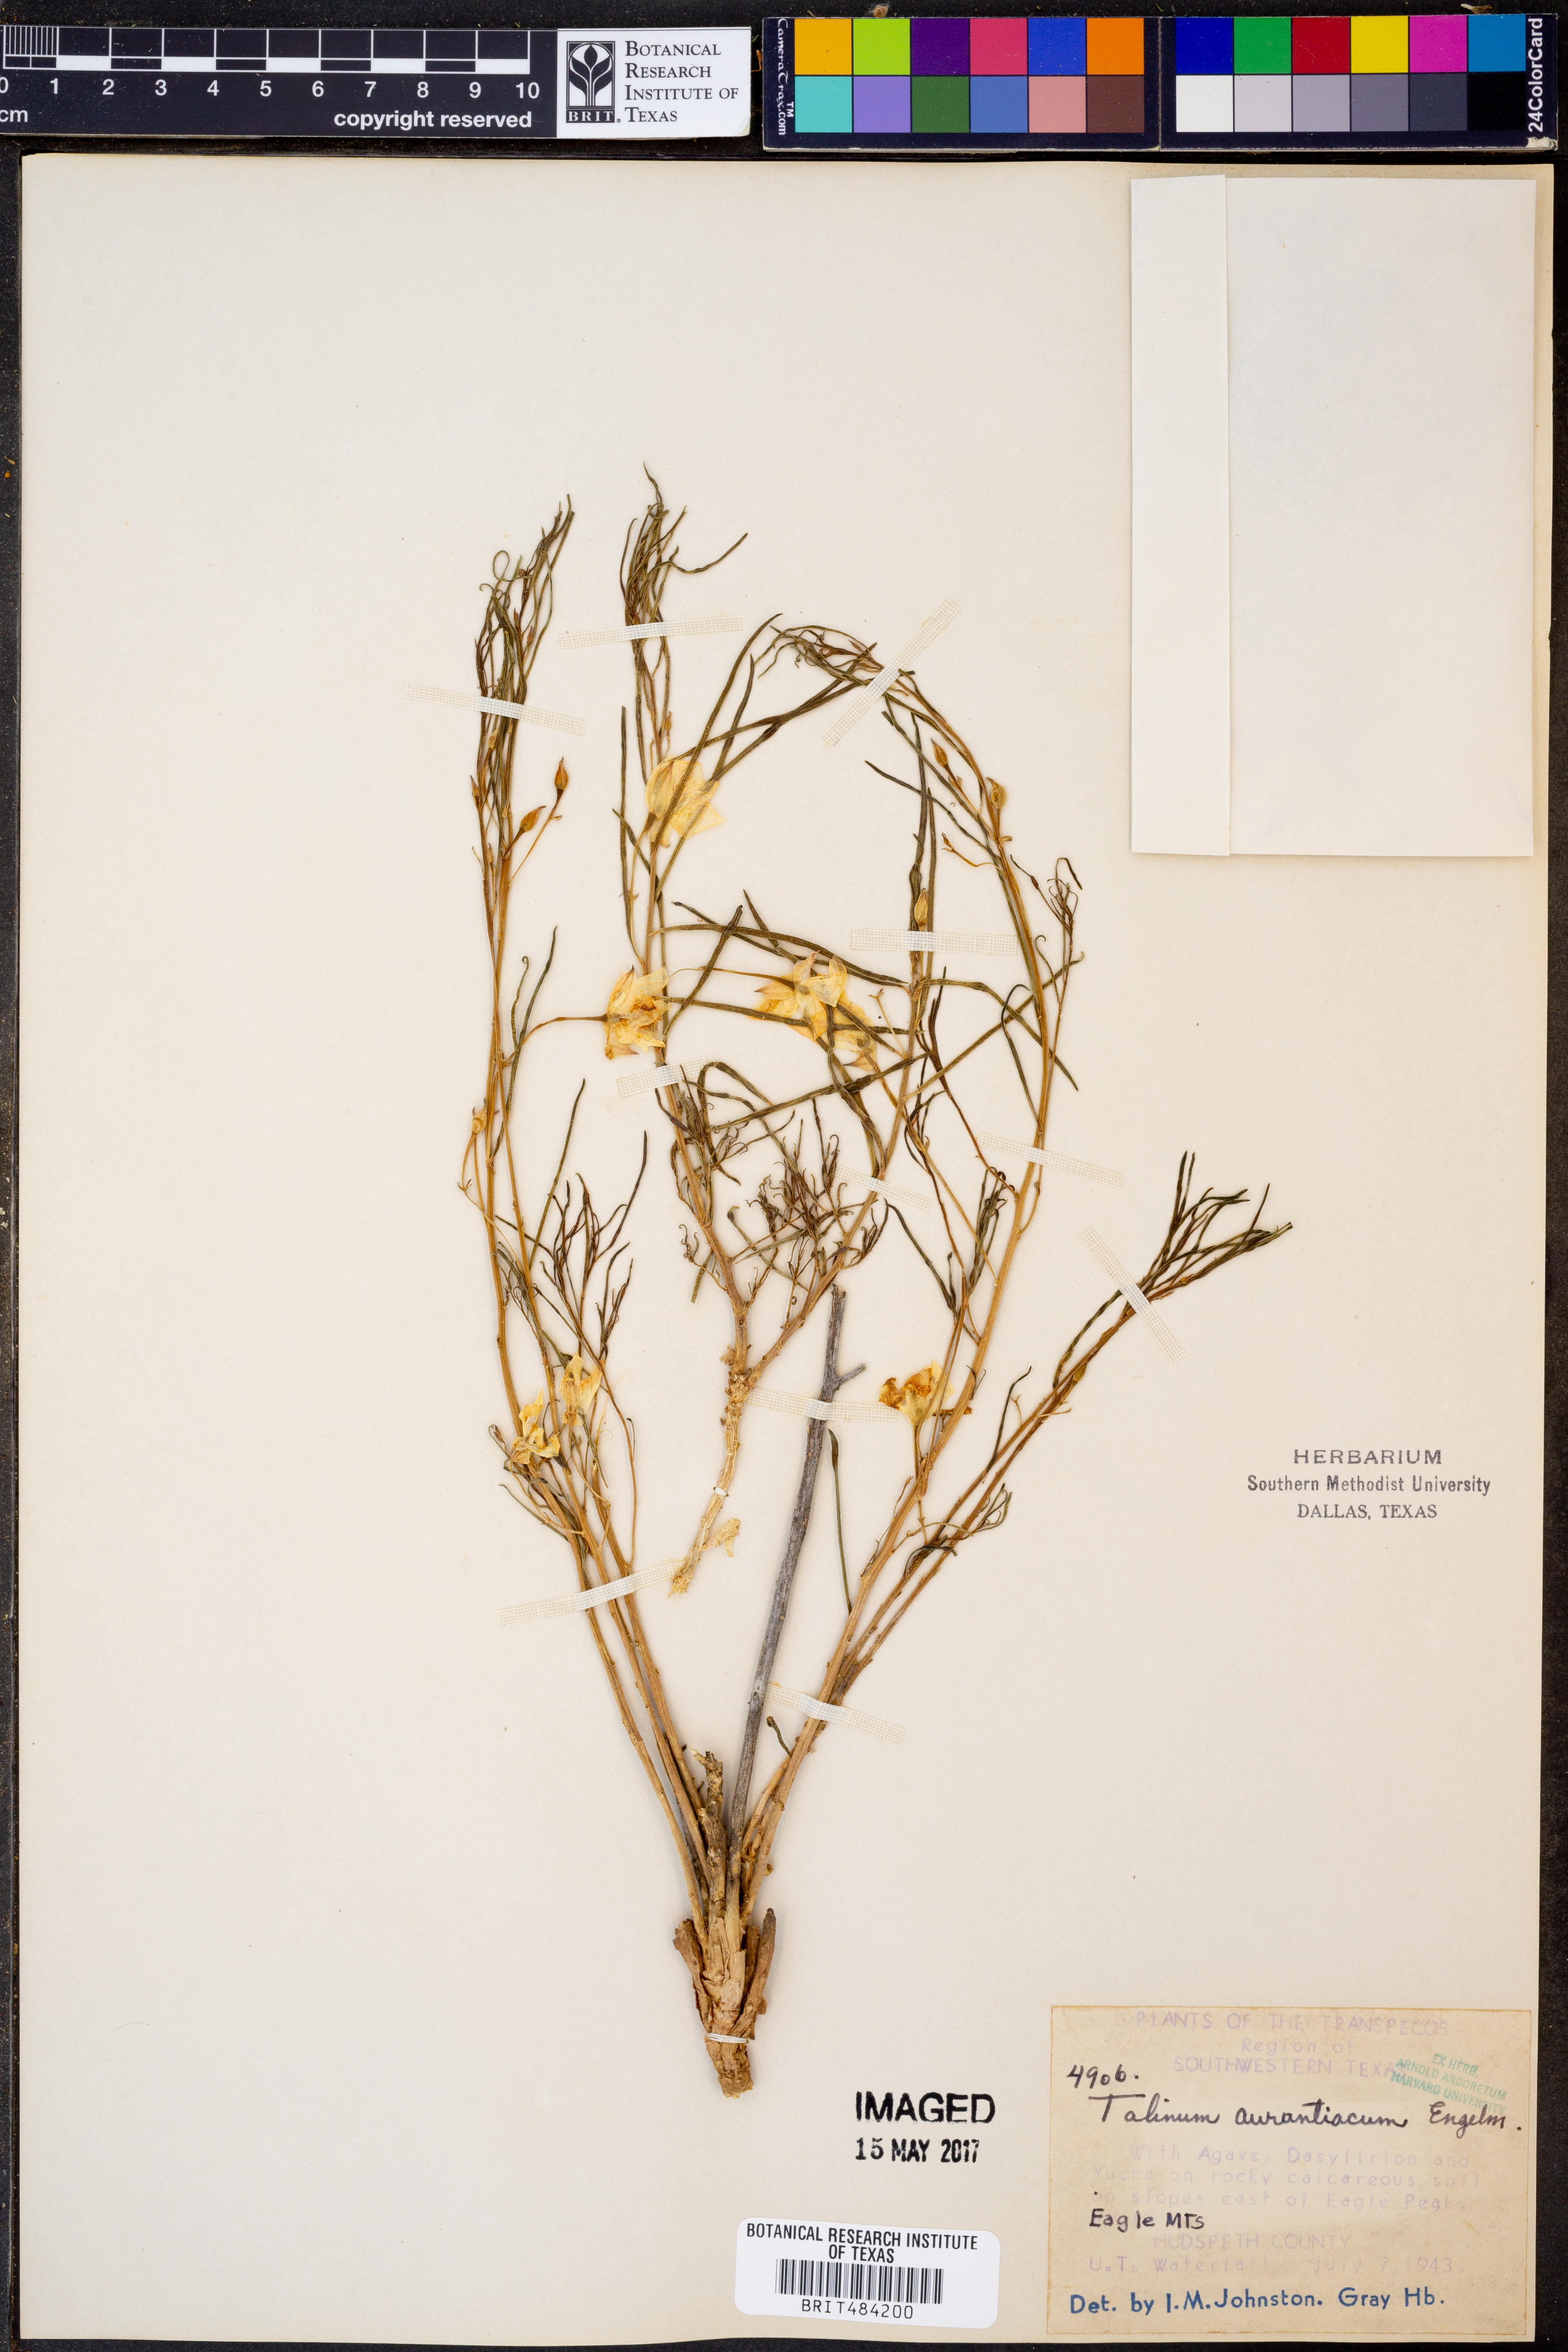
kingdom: Plantae
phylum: Tracheophyta
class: Magnoliopsida
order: Caryophyllales
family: Montiaceae
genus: Phemeranthus
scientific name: Phemeranthus aurantiacus
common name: Orange fameflower
